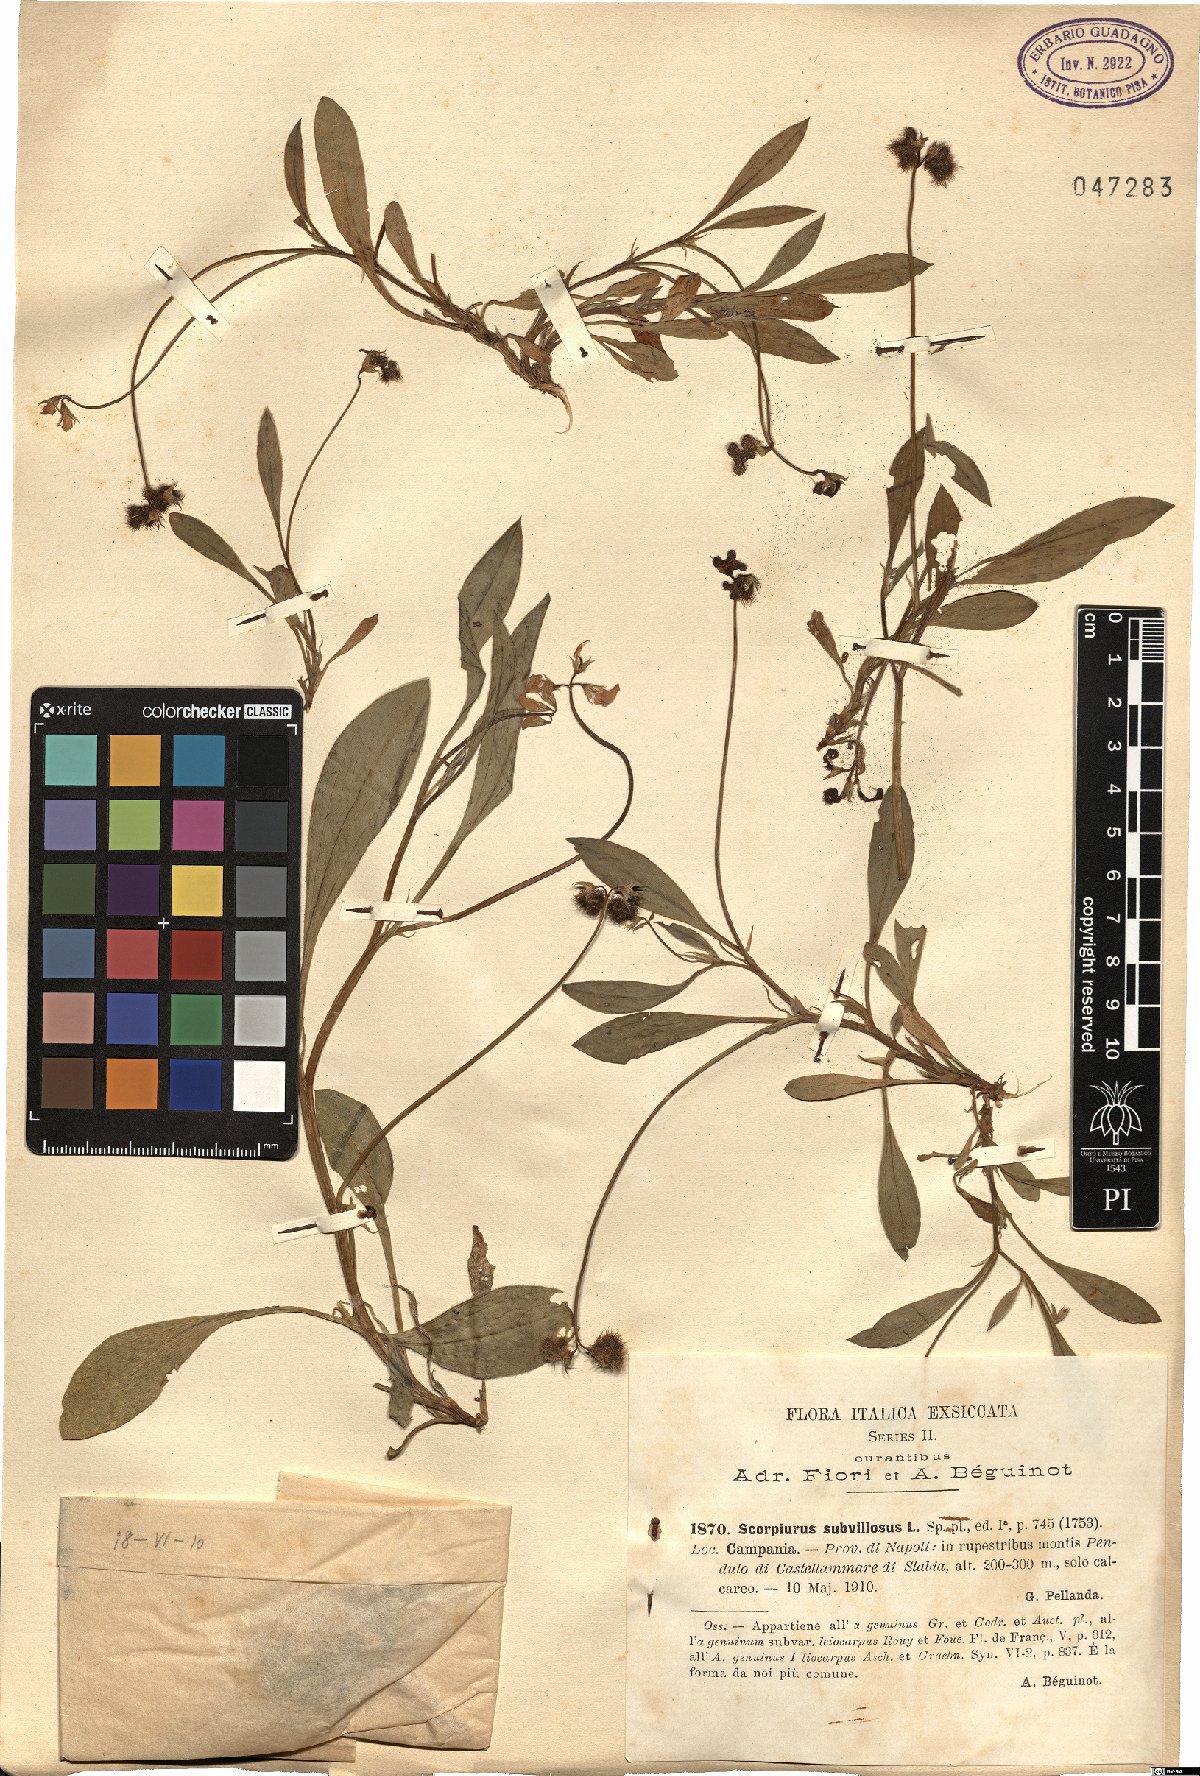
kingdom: Plantae
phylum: Tracheophyta
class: Magnoliopsida
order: Fabales
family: Fabaceae
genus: Scorpiurus
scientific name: Scorpiurus muricatus
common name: Caterpillar-plant
